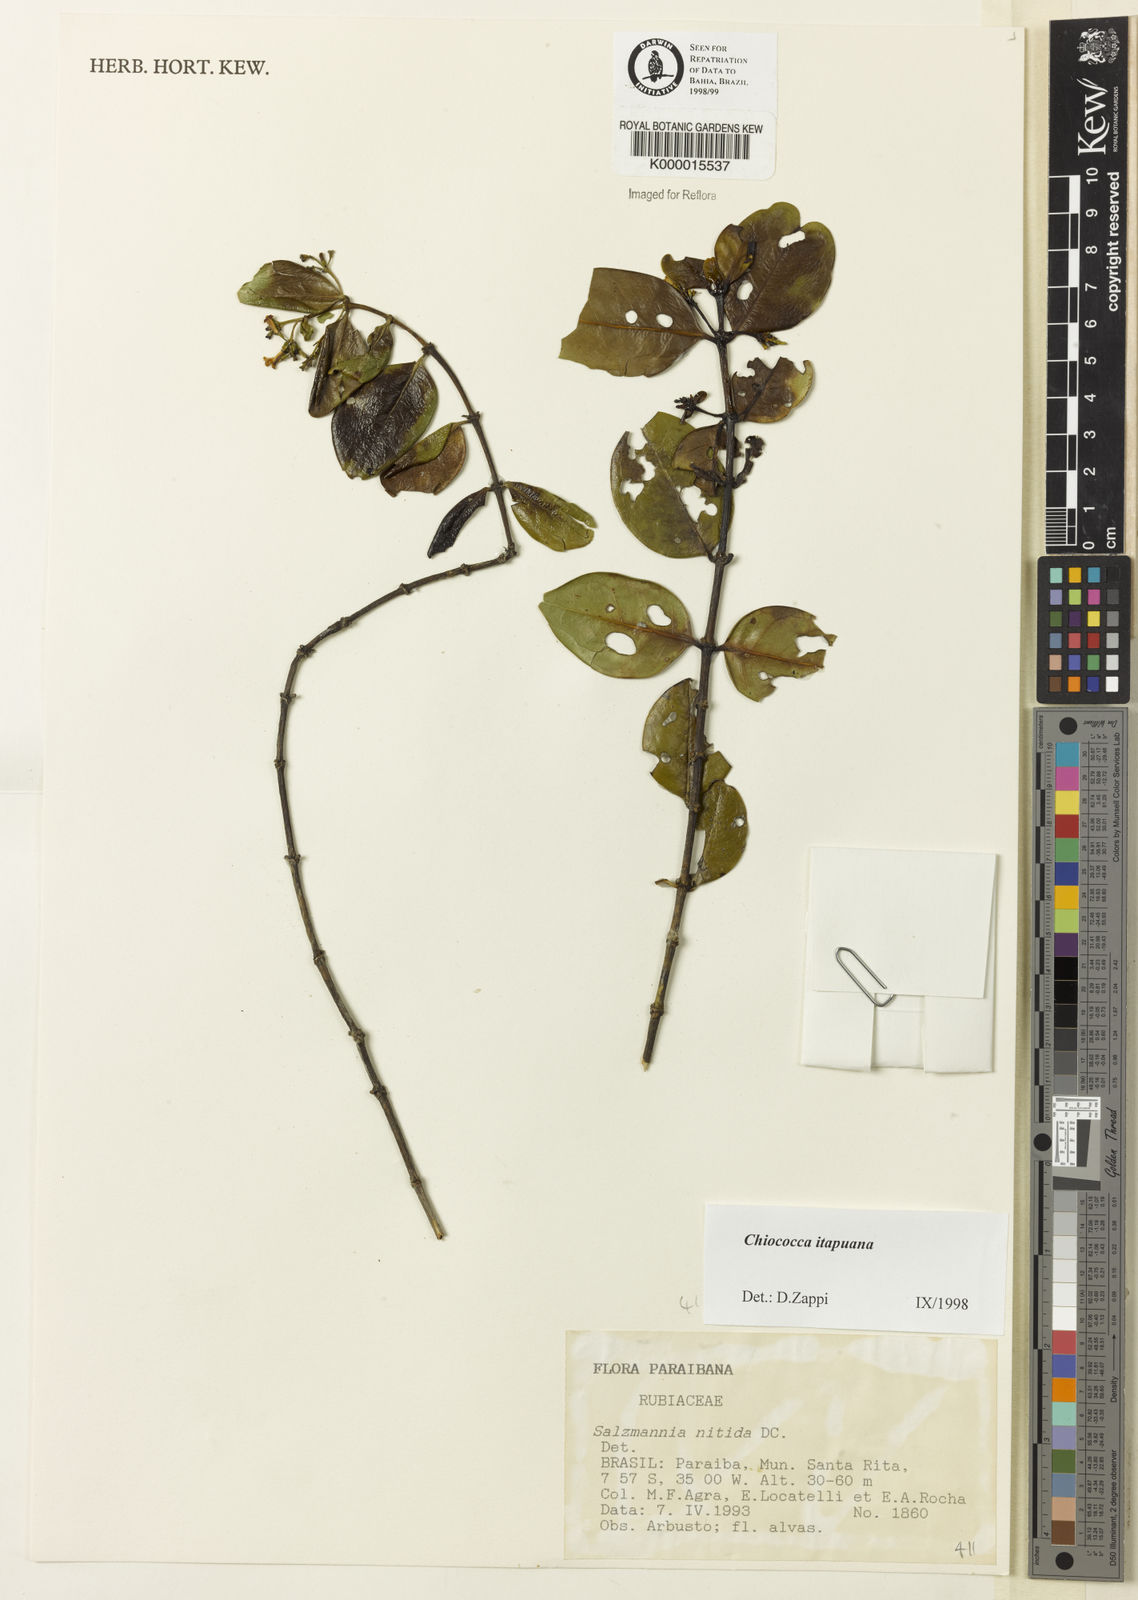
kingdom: Plantae
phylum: Tracheophyta
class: Magnoliopsida
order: Gentianales
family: Rubiaceae
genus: Chiococca
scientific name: Chiococca
